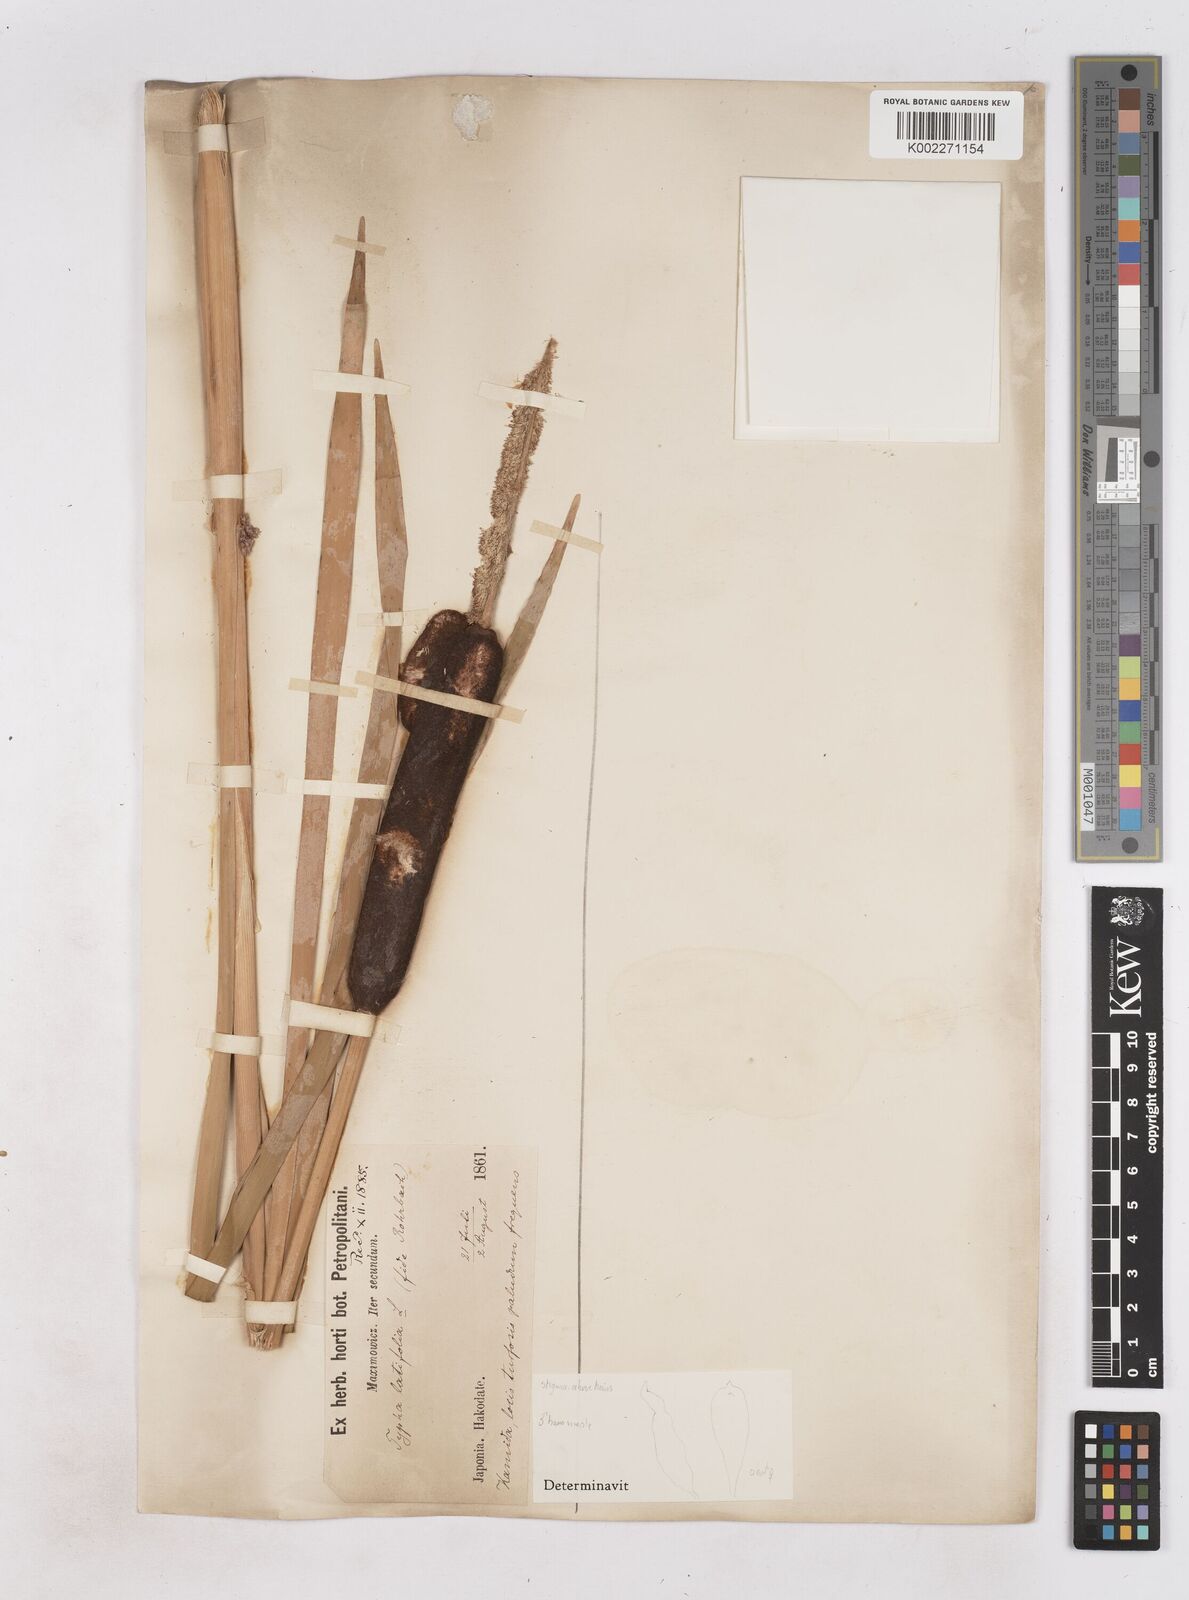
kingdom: Plantae
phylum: Tracheophyta
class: Liliopsida
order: Poales
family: Typhaceae
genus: Typha
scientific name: Typha latifolia
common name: Broadleaf cattail
